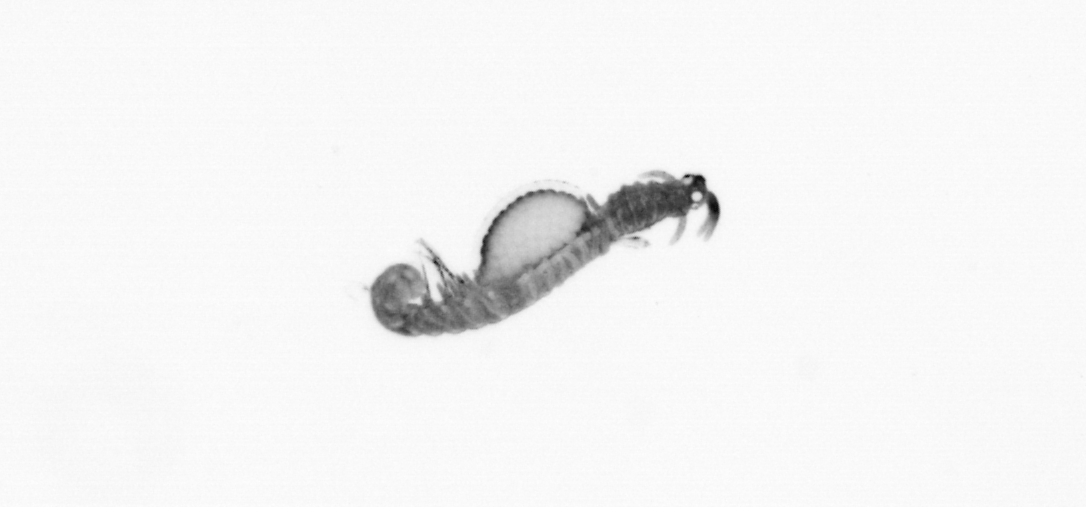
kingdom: Animalia
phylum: Annelida
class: Polychaeta
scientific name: Polychaeta
